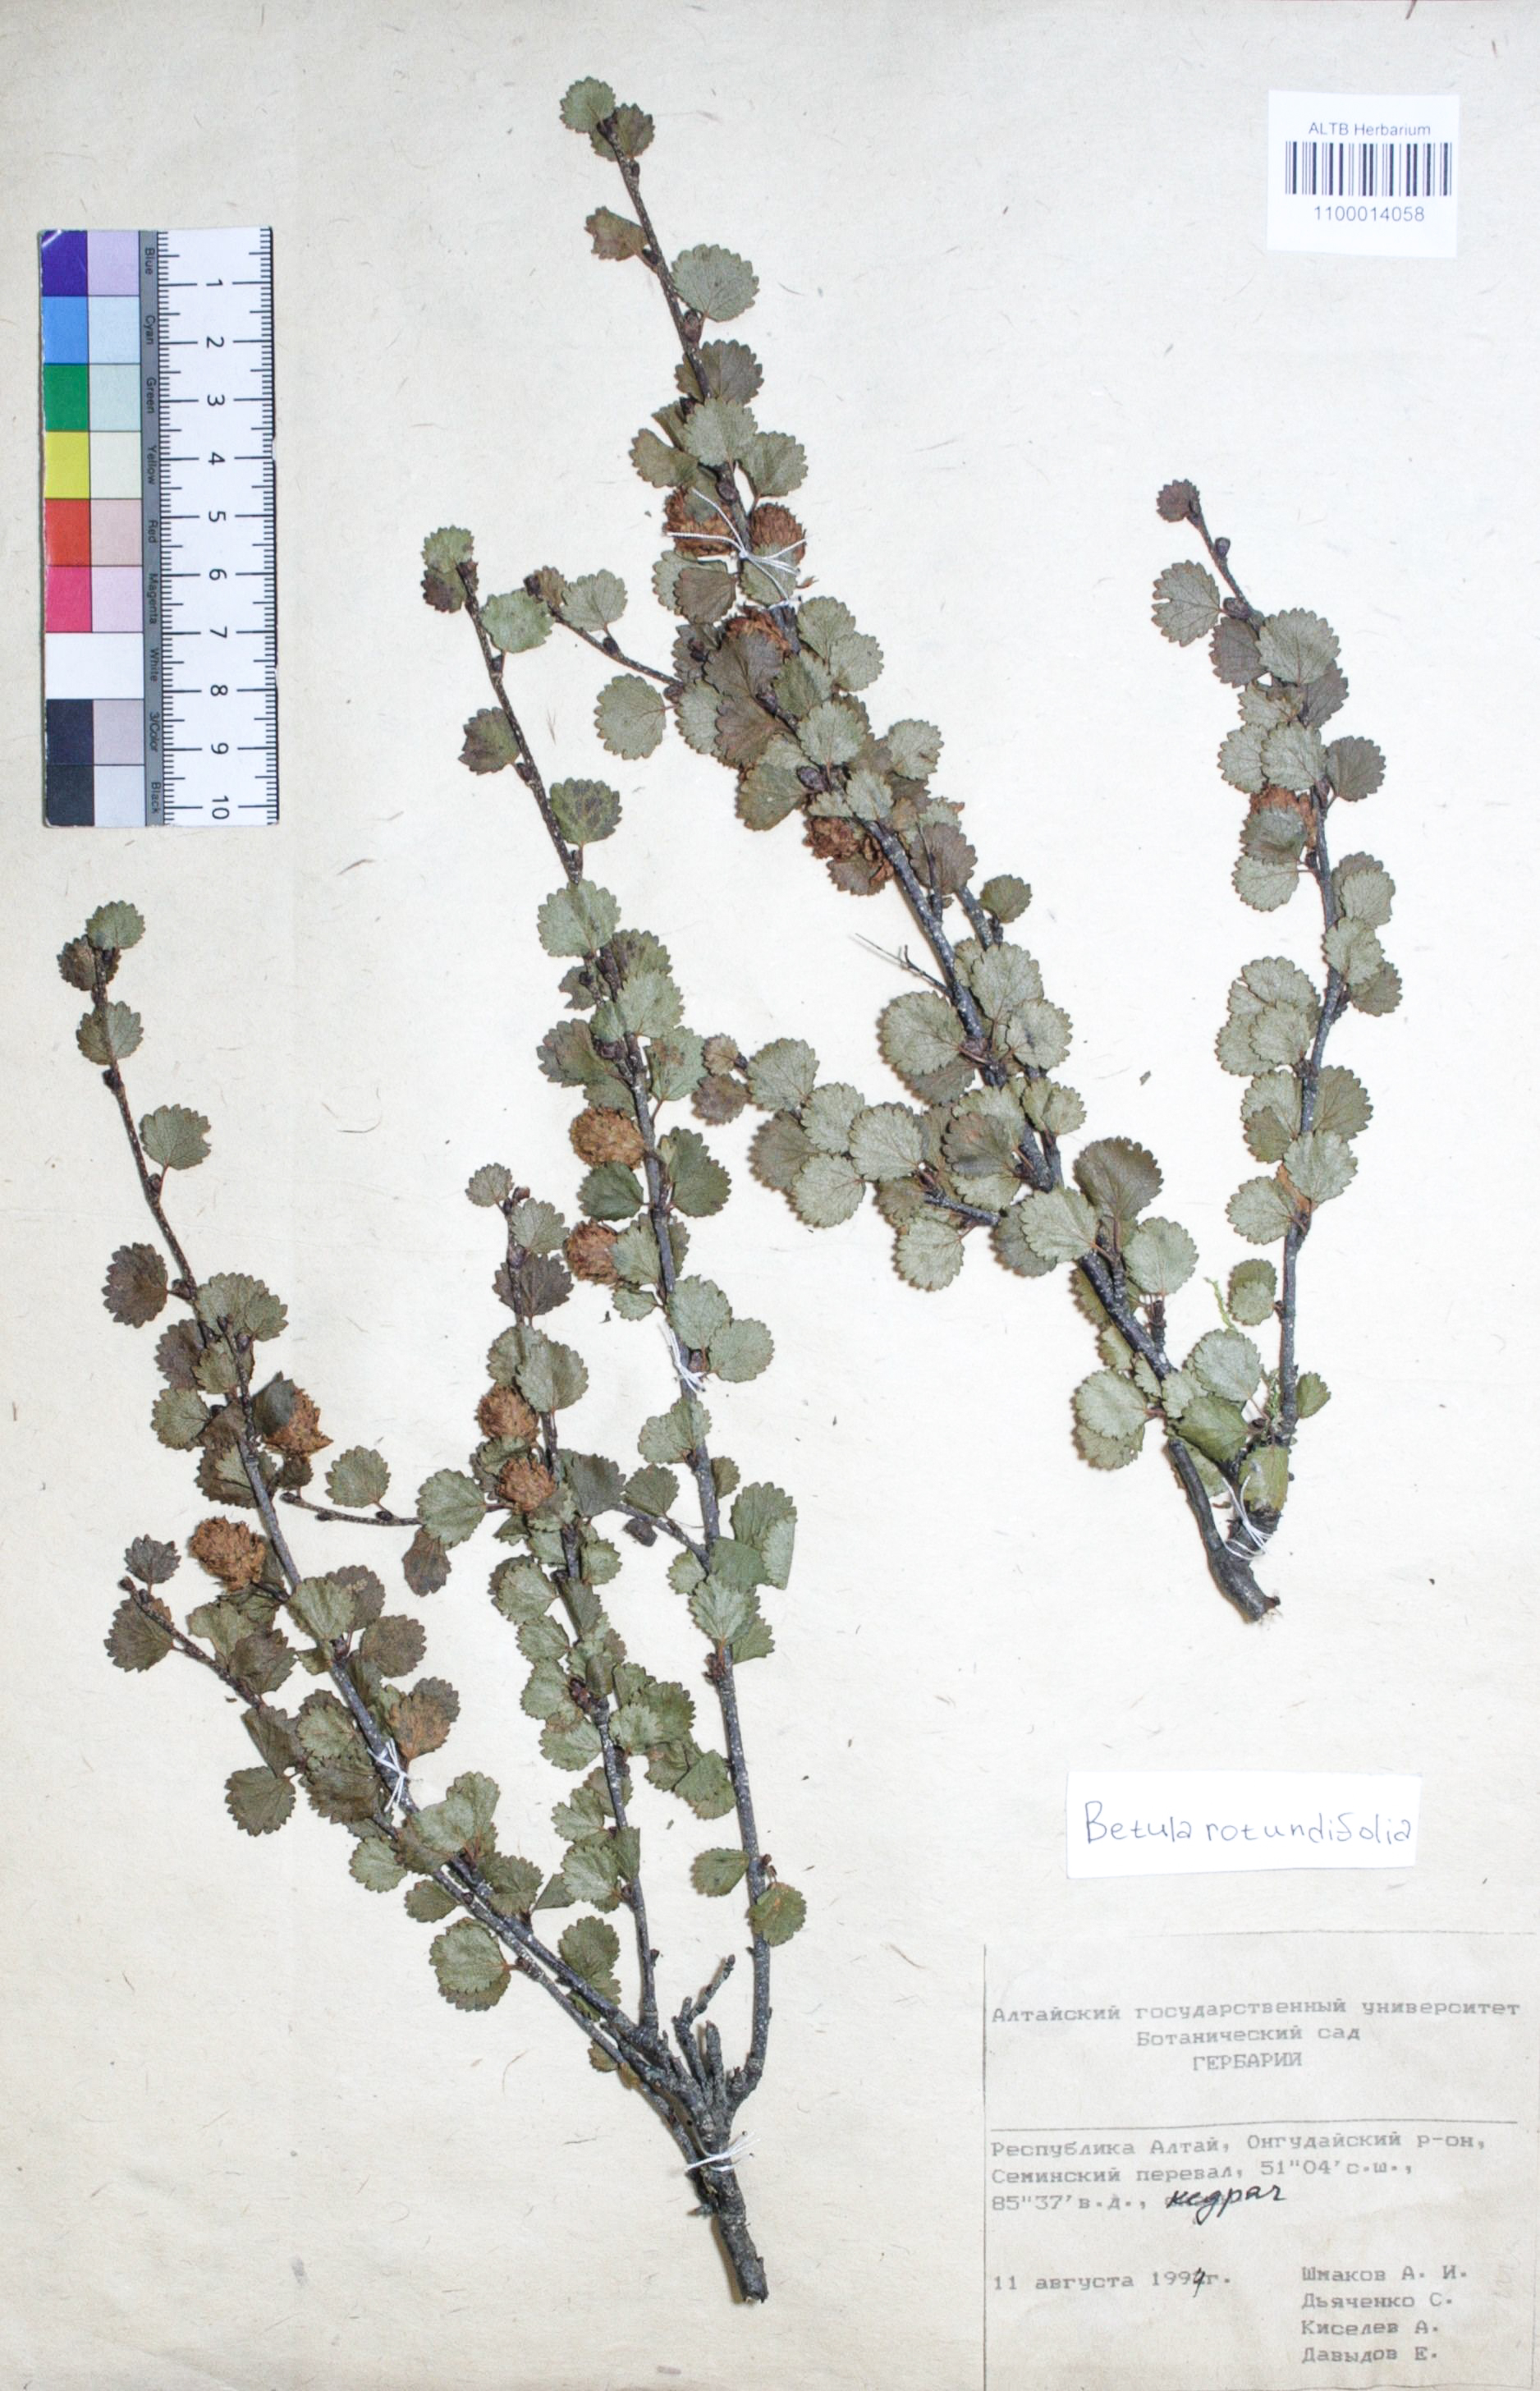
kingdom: Plantae
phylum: Tracheophyta
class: Magnoliopsida
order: Fagales
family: Betulaceae
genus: Betula
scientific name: Betula glandulosa
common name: Dwarf birch
